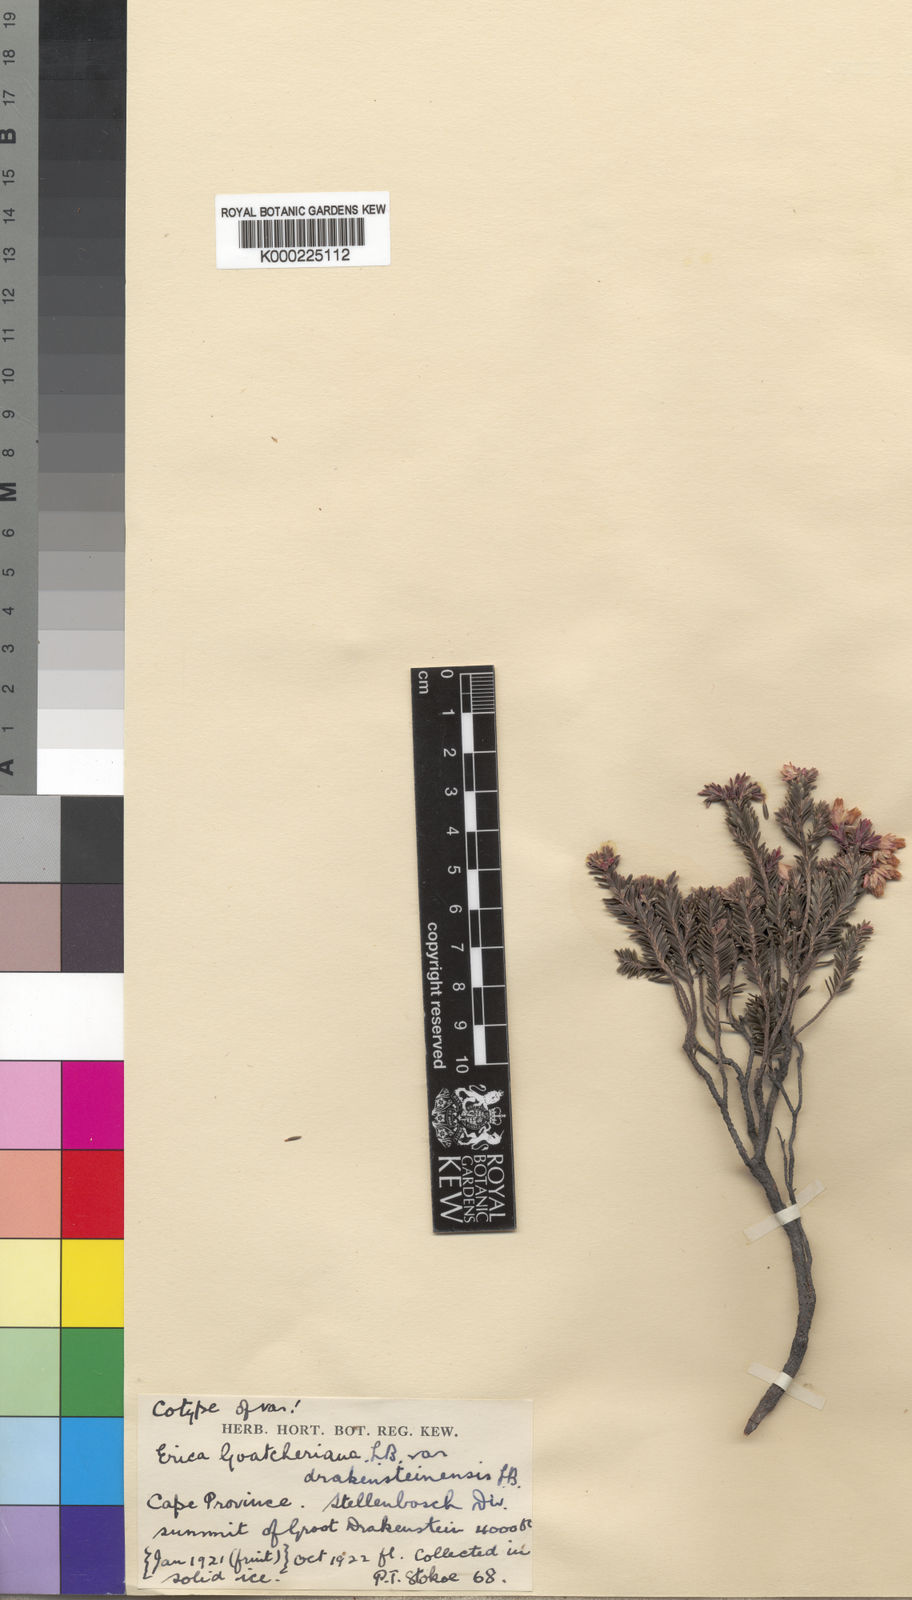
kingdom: Plantae
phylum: Tracheophyta
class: Magnoliopsida
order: Ericales
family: Ericaceae
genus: Erica
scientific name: Erica goatcheriana
